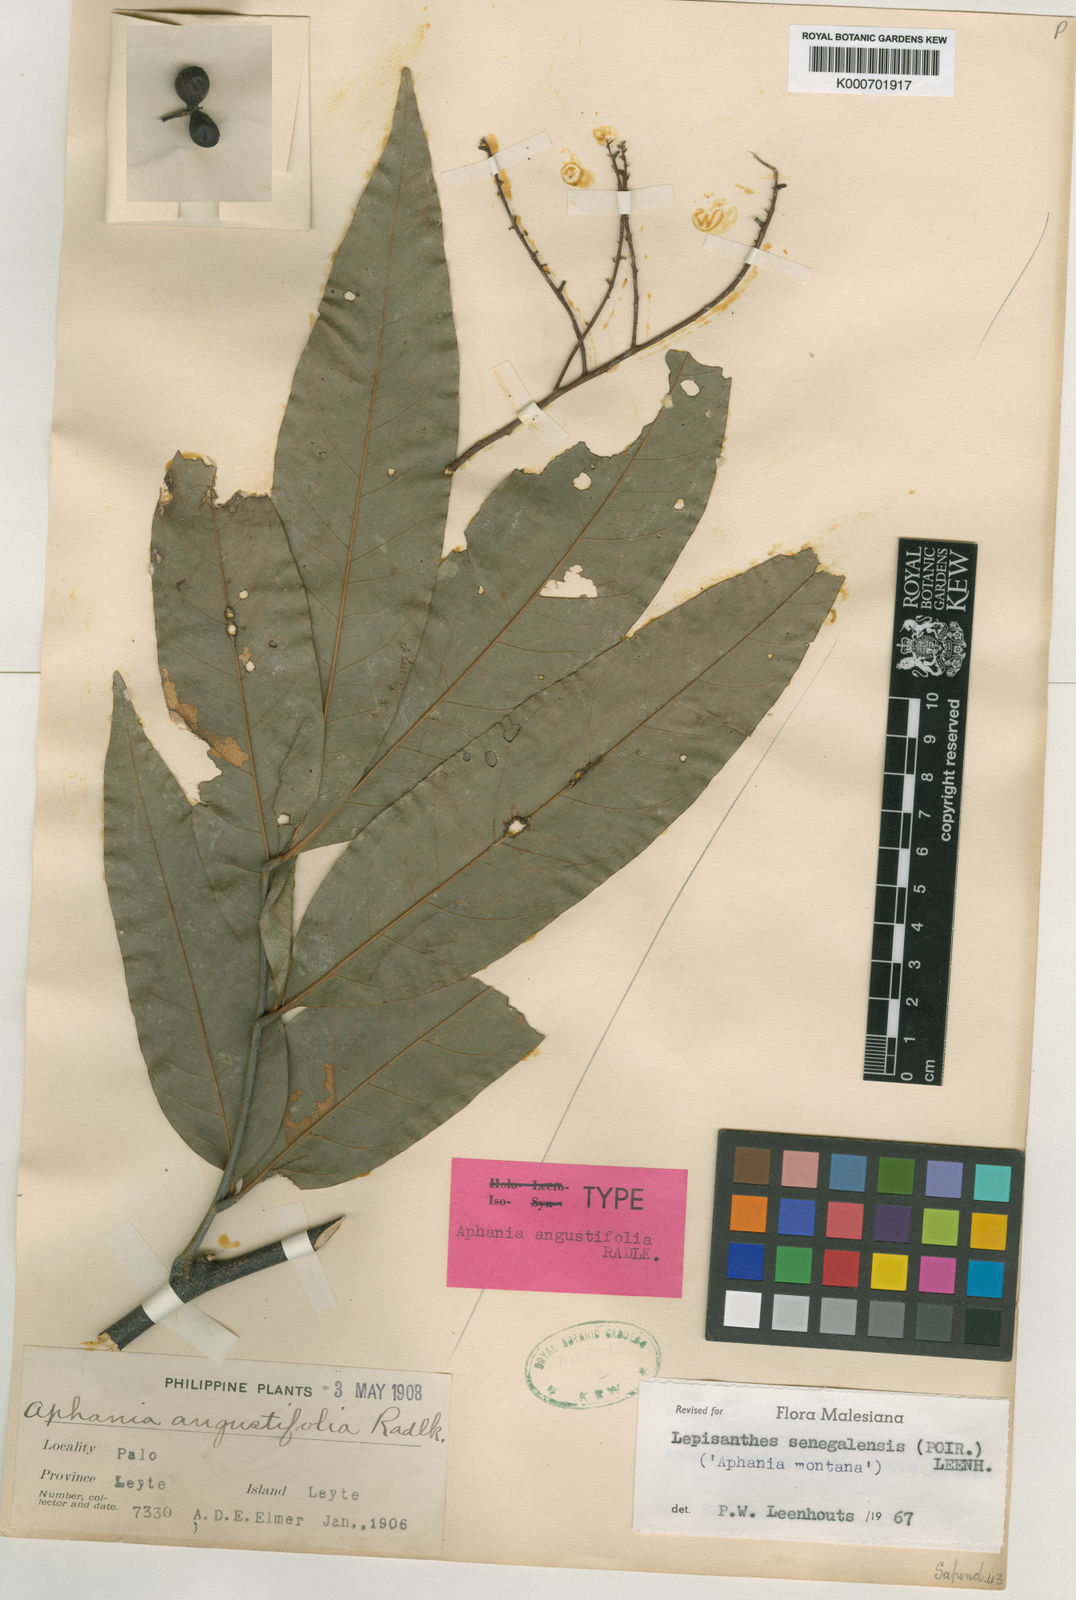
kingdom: Plantae
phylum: Tracheophyta
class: Magnoliopsida
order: Sapindales
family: Sapindaceae
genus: Lepisanthes
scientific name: Lepisanthes senegalensis
